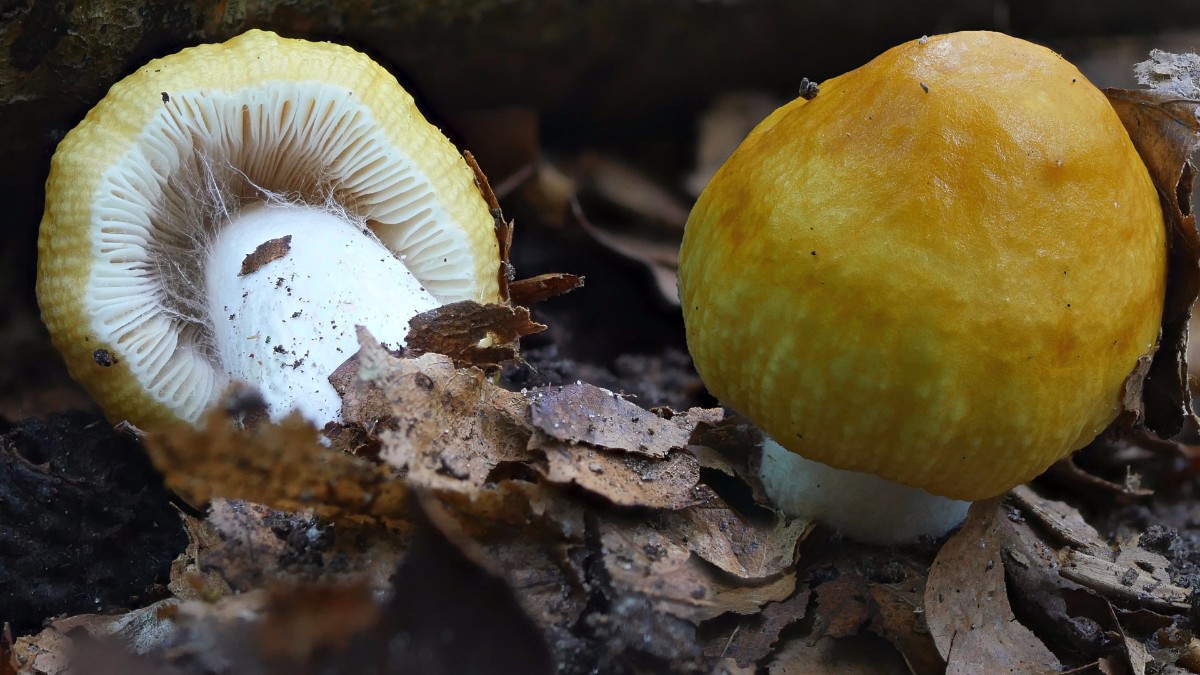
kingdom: Fungi
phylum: Basidiomycota
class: Agaricomycetes
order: Russulales
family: Russulaceae
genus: Russula
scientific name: Russula fellea
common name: galde-skørhat
